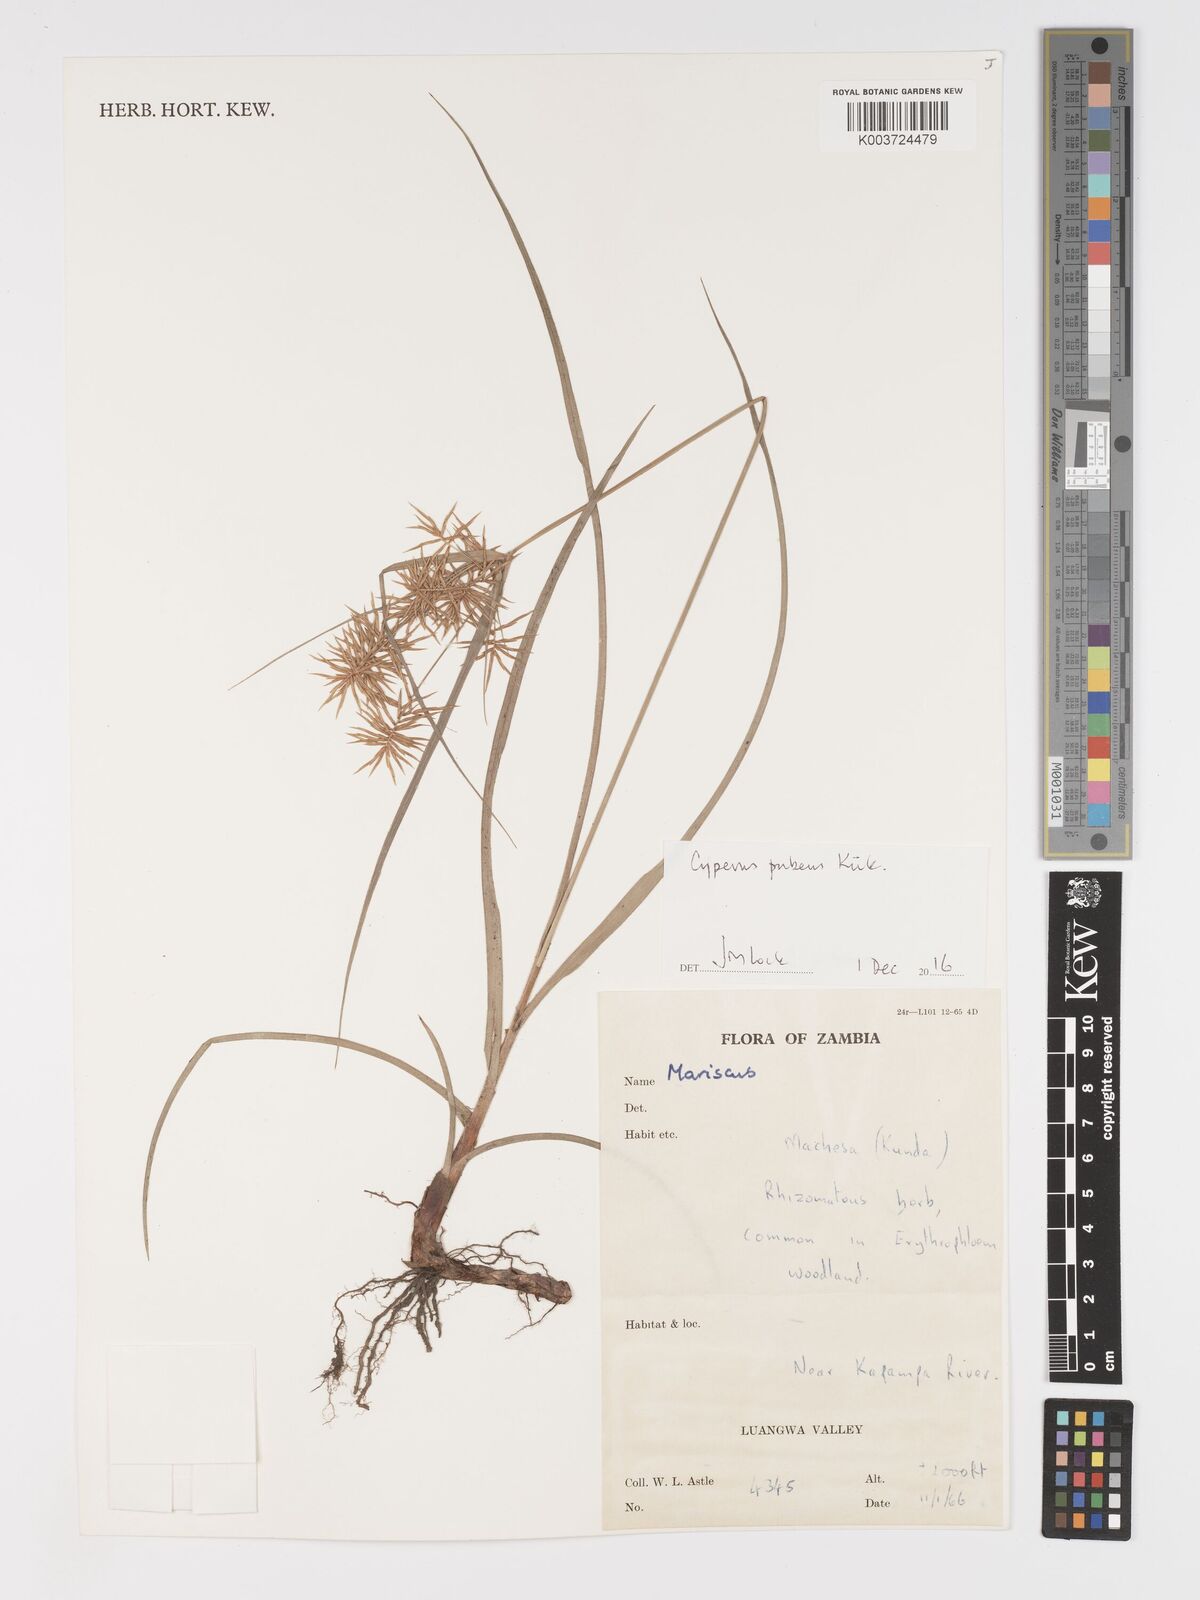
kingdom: Plantae
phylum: Tracheophyta
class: Liliopsida
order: Poales
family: Cyperaceae
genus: Cyperus
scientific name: Cyperus pubens
